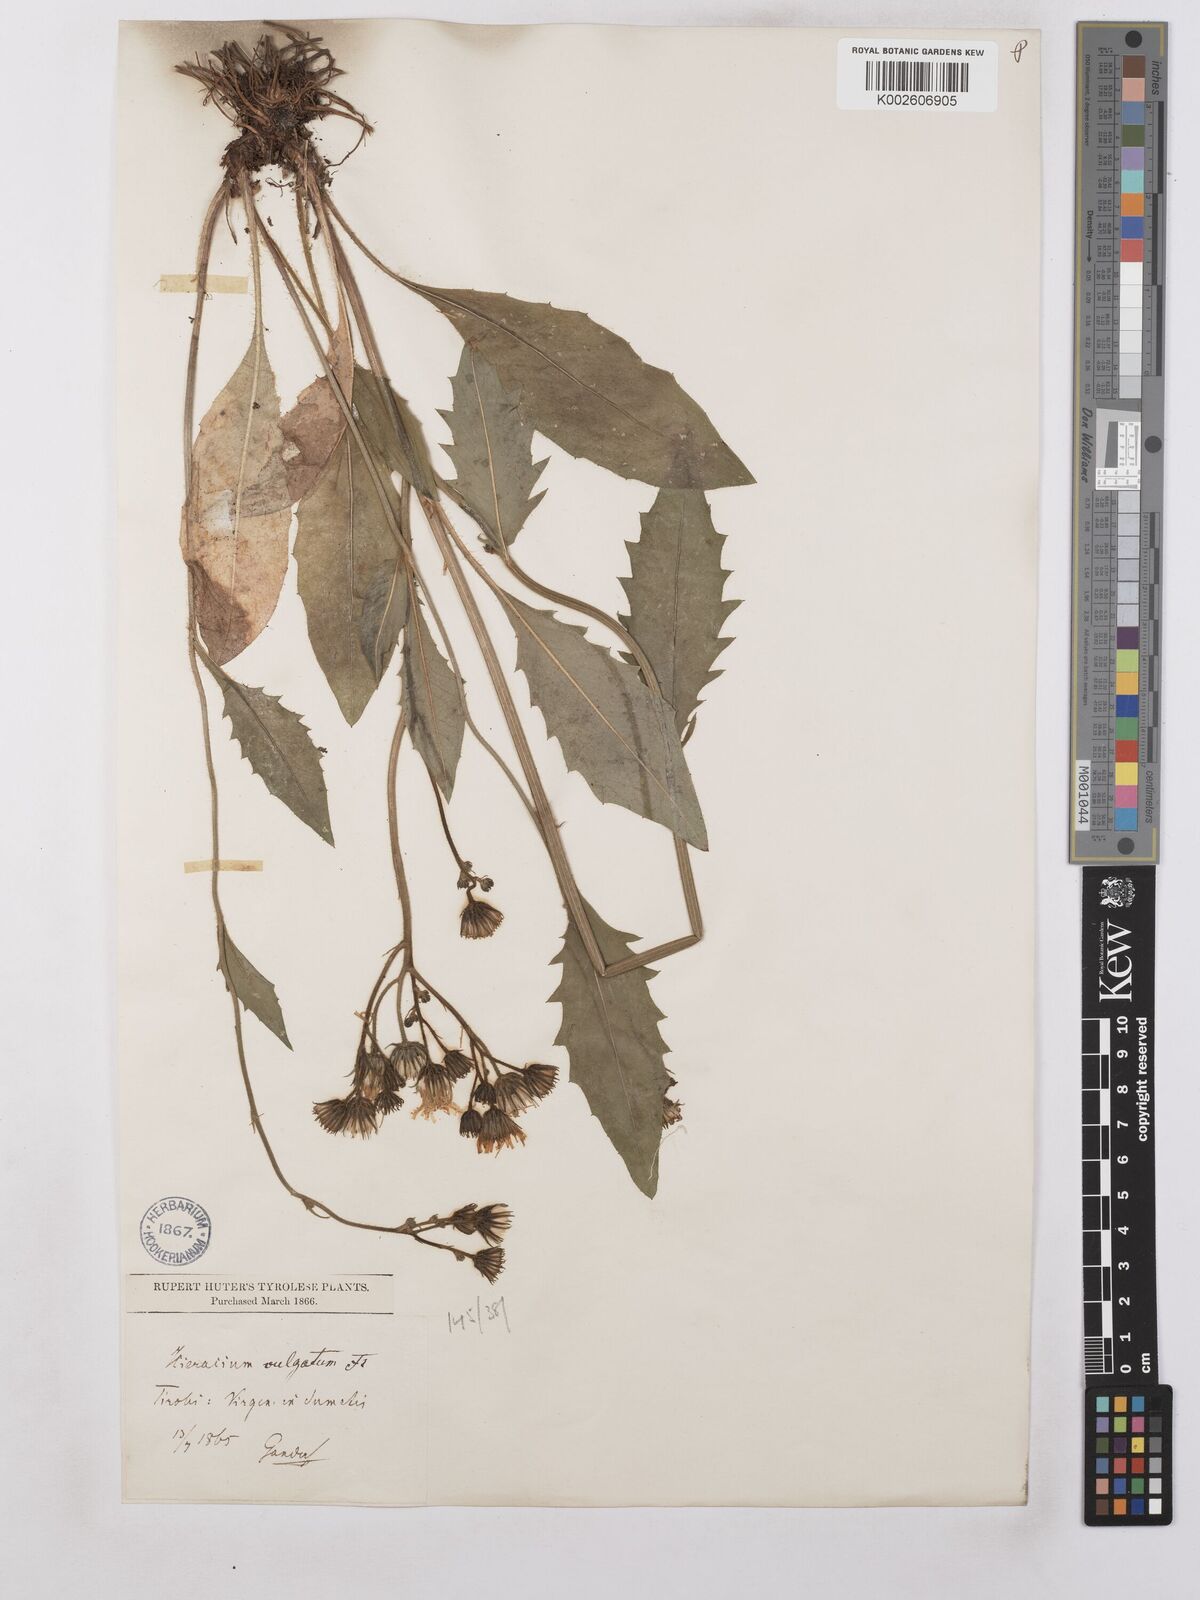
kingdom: Plantae
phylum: Tracheophyta
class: Magnoliopsida
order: Asterales
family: Asteraceae
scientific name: Asteraceae
